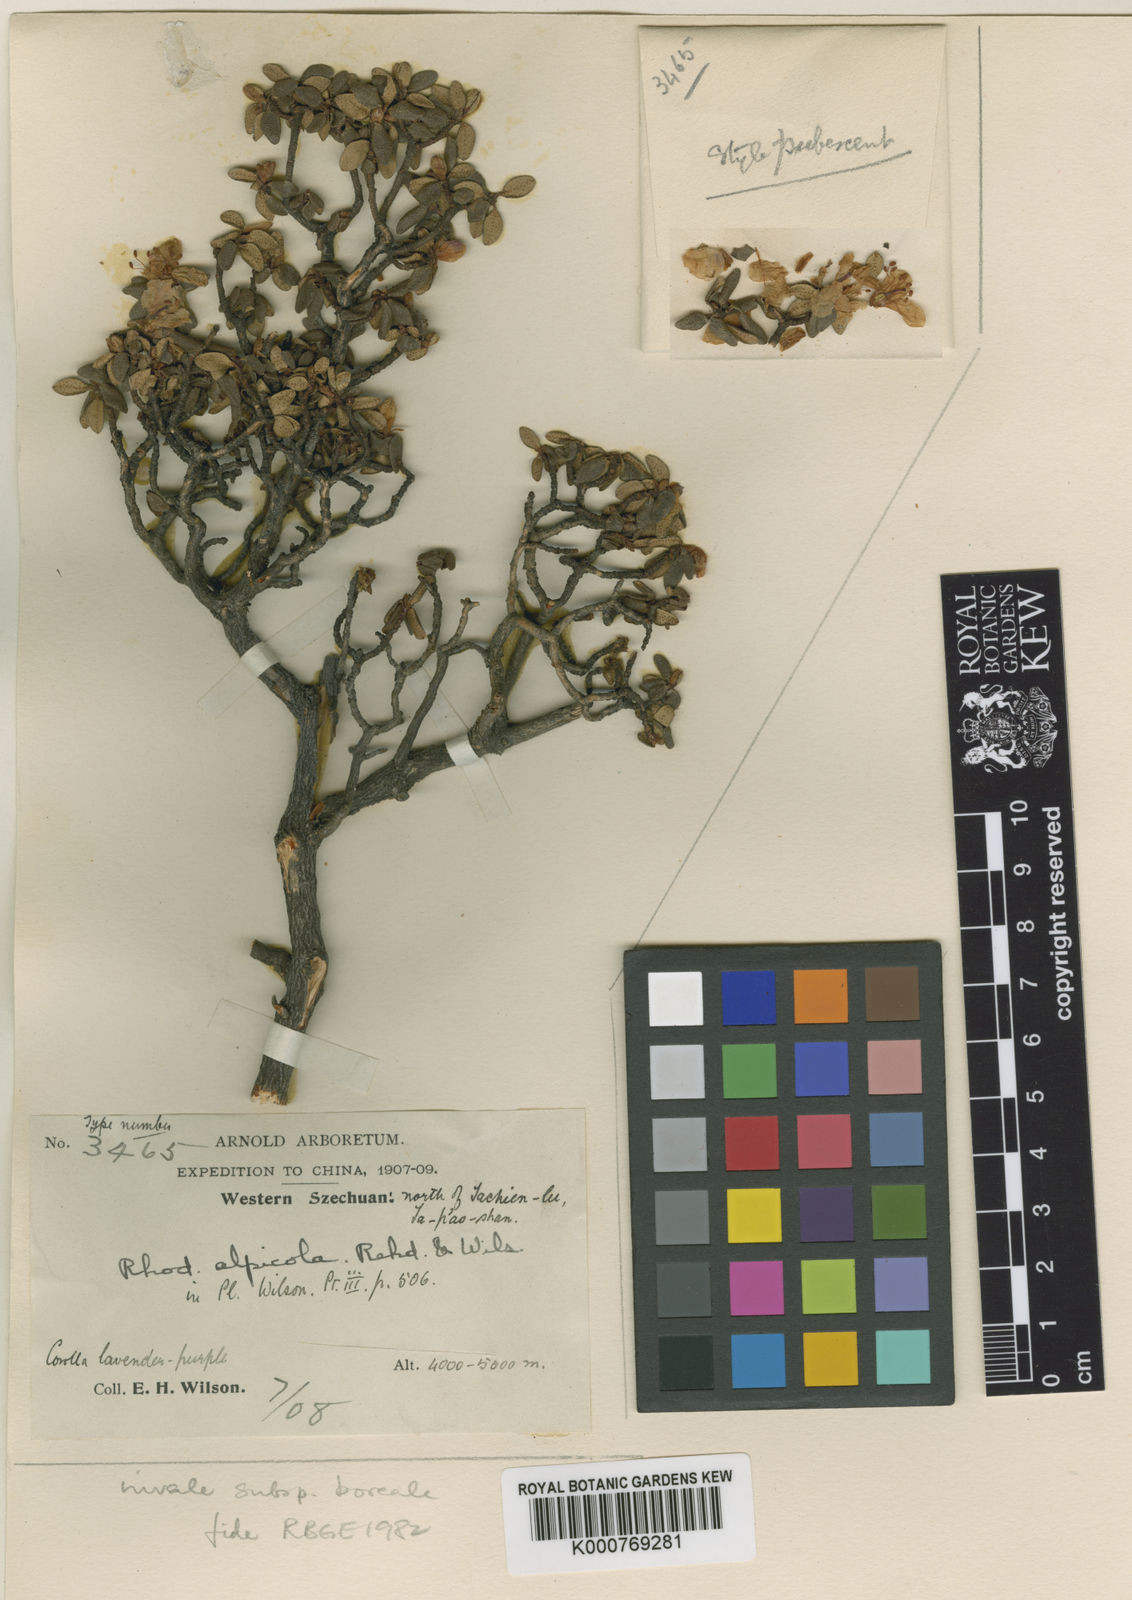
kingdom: Plantae
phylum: Tracheophyta
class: Magnoliopsida
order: Ericales
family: Ericaceae
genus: Rhododendron
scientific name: Rhododendron nivale
